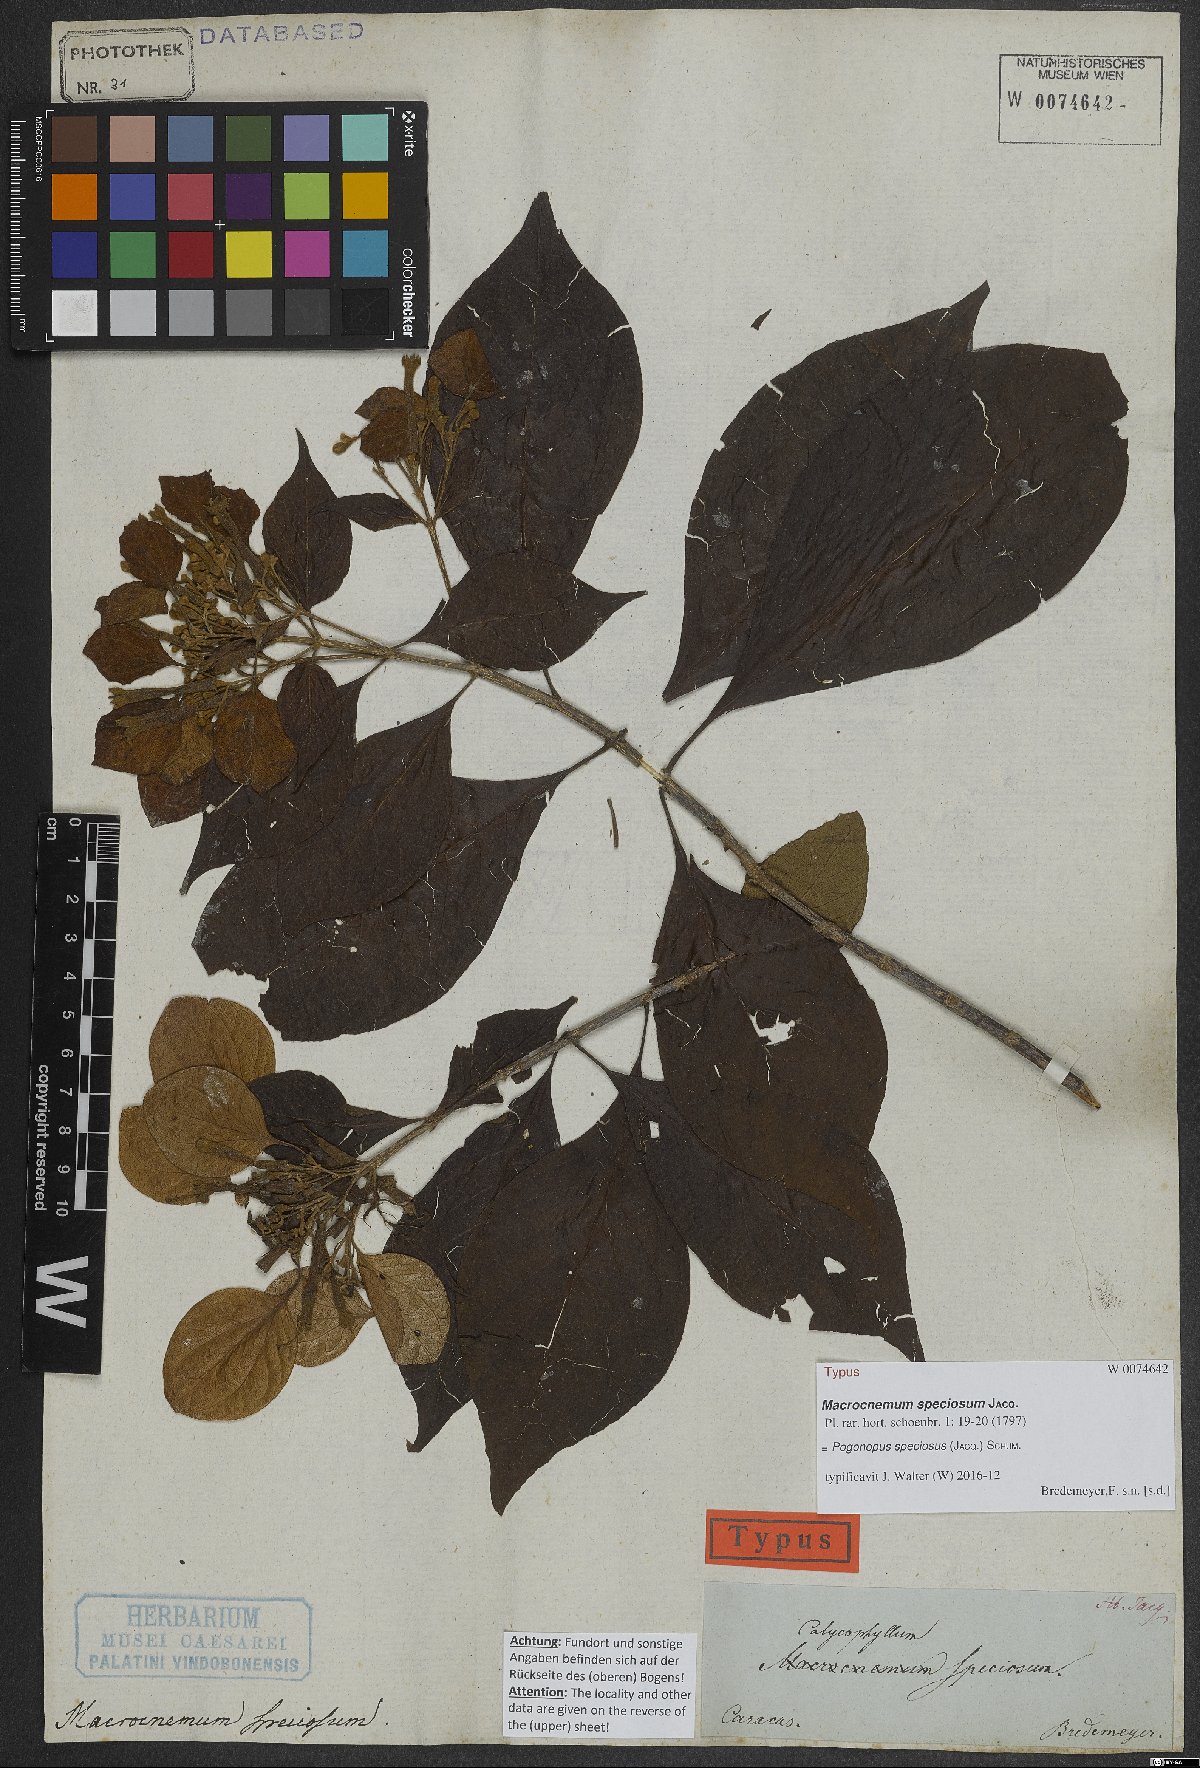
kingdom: Plantae
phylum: Tracheophyta
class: Magnoliopsida
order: Gentianales
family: Rubiaceae
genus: Pogonopus
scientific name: Pogonopus speciosus
